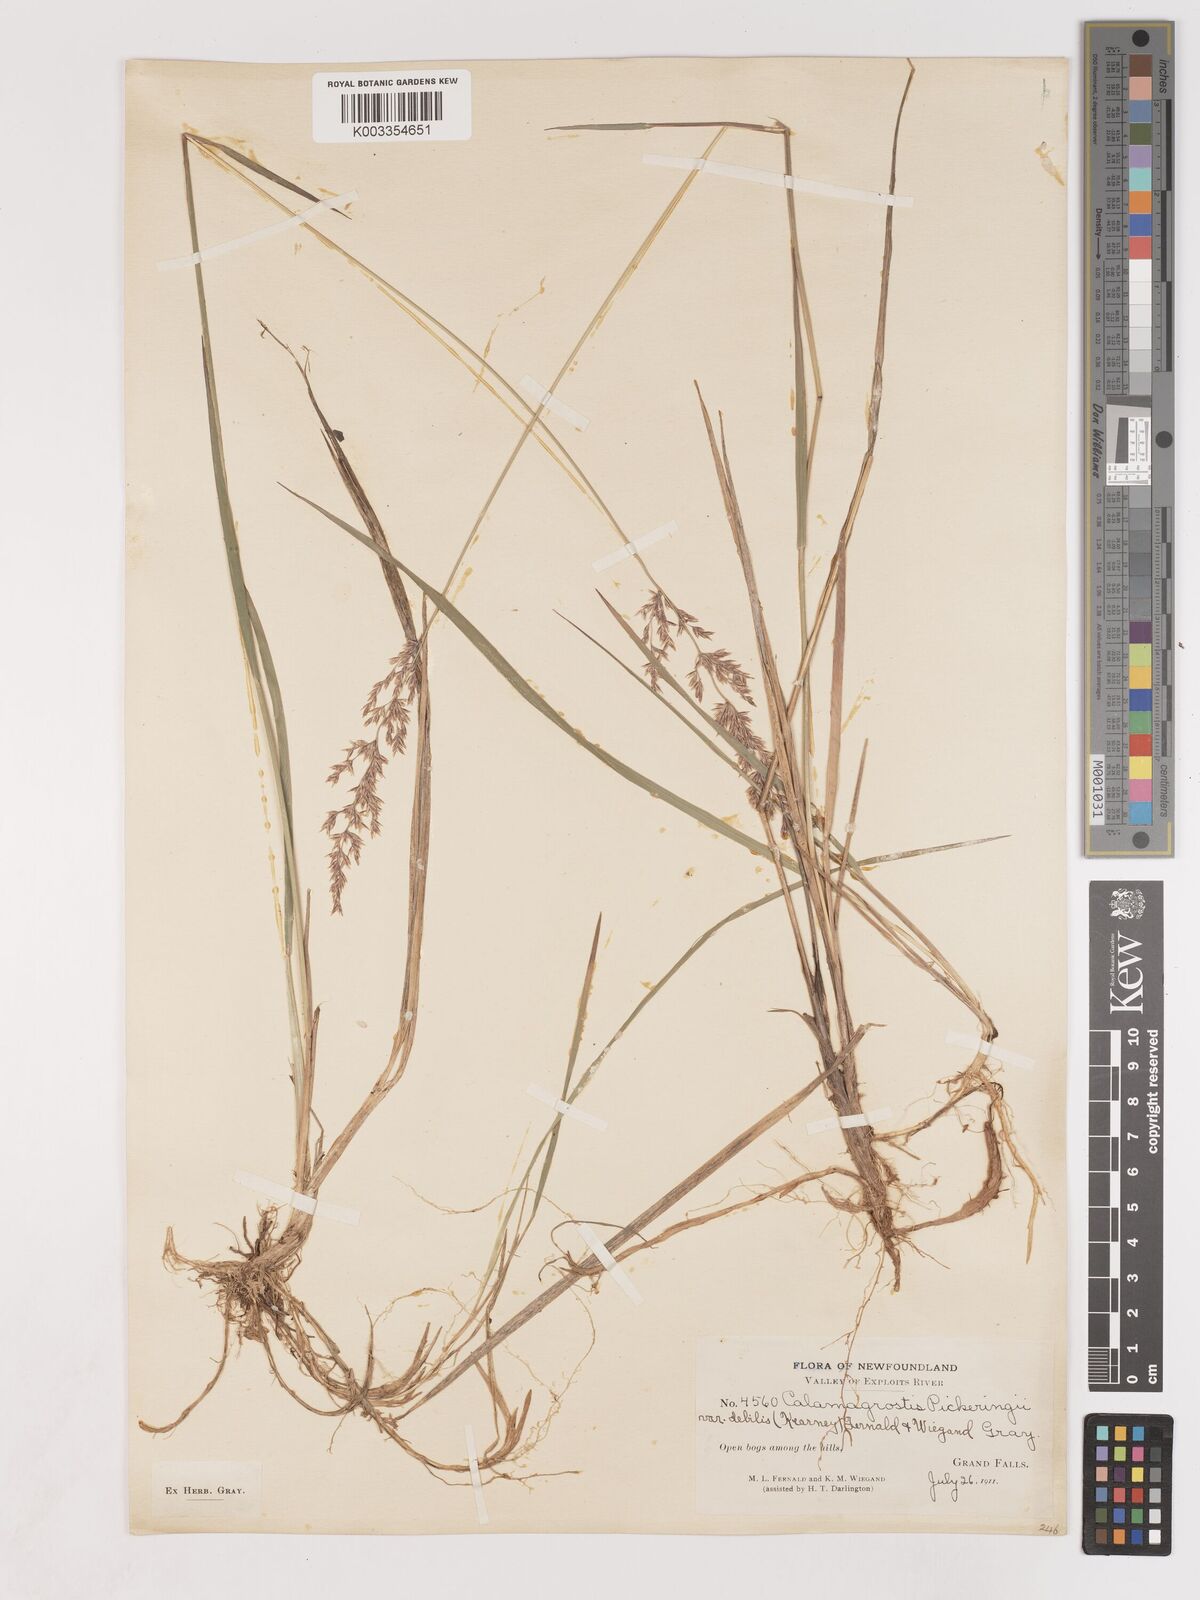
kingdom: Plantae
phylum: Tracheophyta
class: Liliopsida
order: Poales
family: Poaceae
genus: Calamagrostis
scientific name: Calamagrostis pickeringii
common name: Pickering's reed bentgrass
